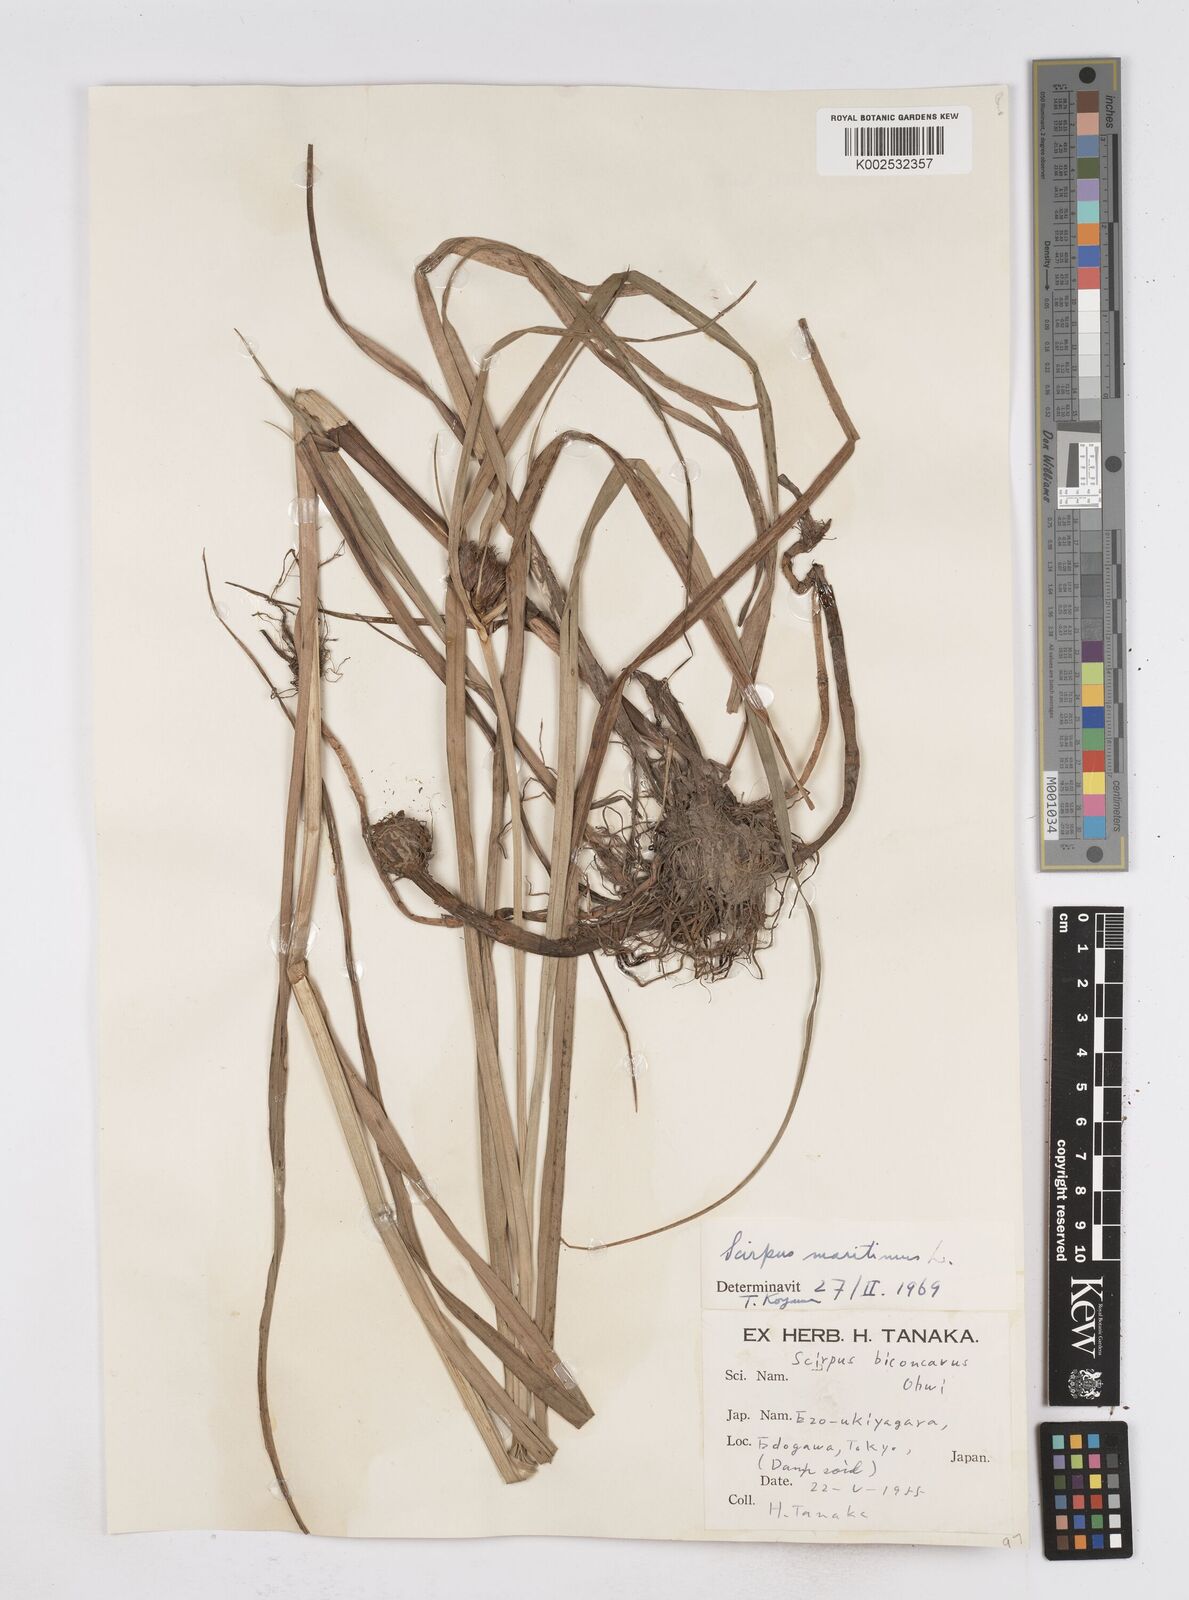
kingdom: Plantae
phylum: Tracheophyta
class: Liliopsida
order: Poales
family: Cyperaceae
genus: Bolboschoenus
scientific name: Bolboschoenus maritimus
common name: Sea club-rush
